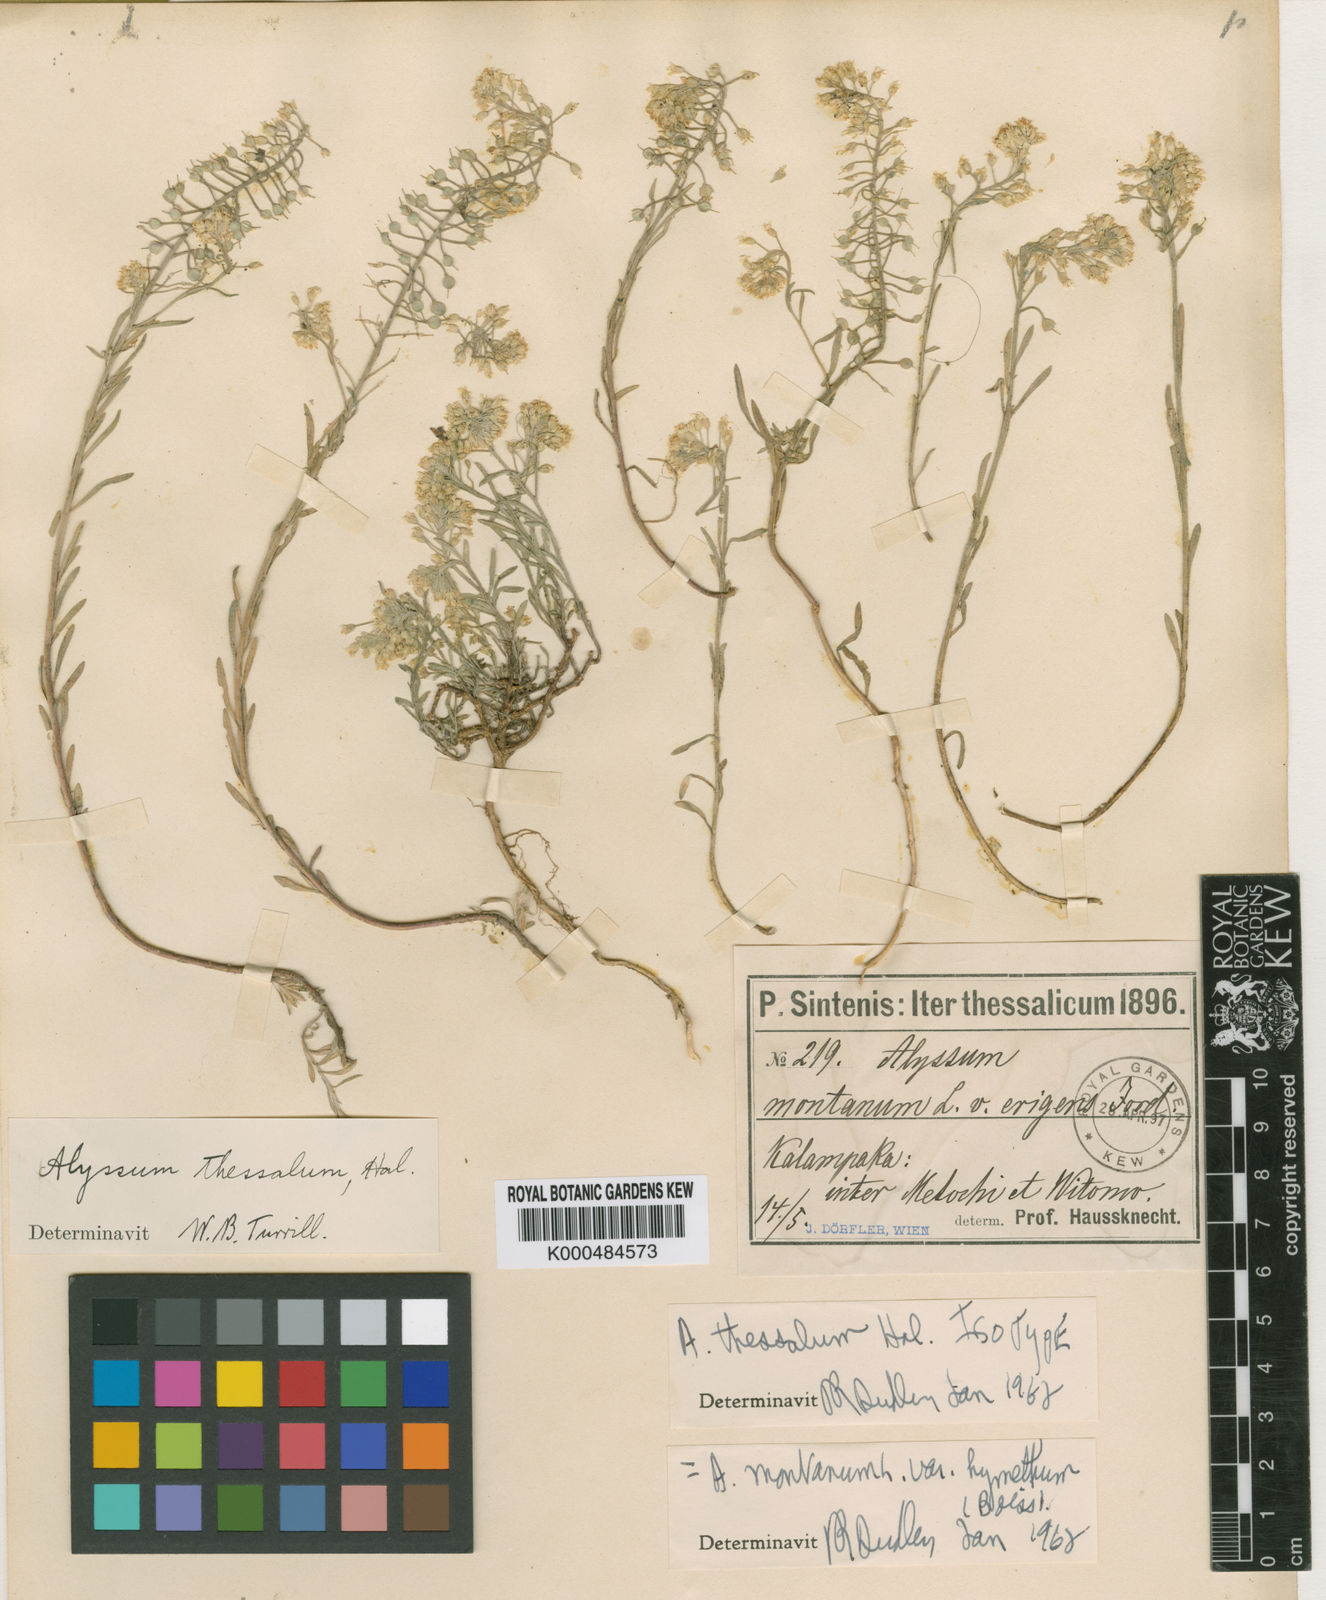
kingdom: Plantae
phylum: Tracheophyta
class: Magnoliopsida
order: Brassicales
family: Brassicaceae
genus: Alyssum
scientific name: Alyssum montanum
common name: Mountain alison
